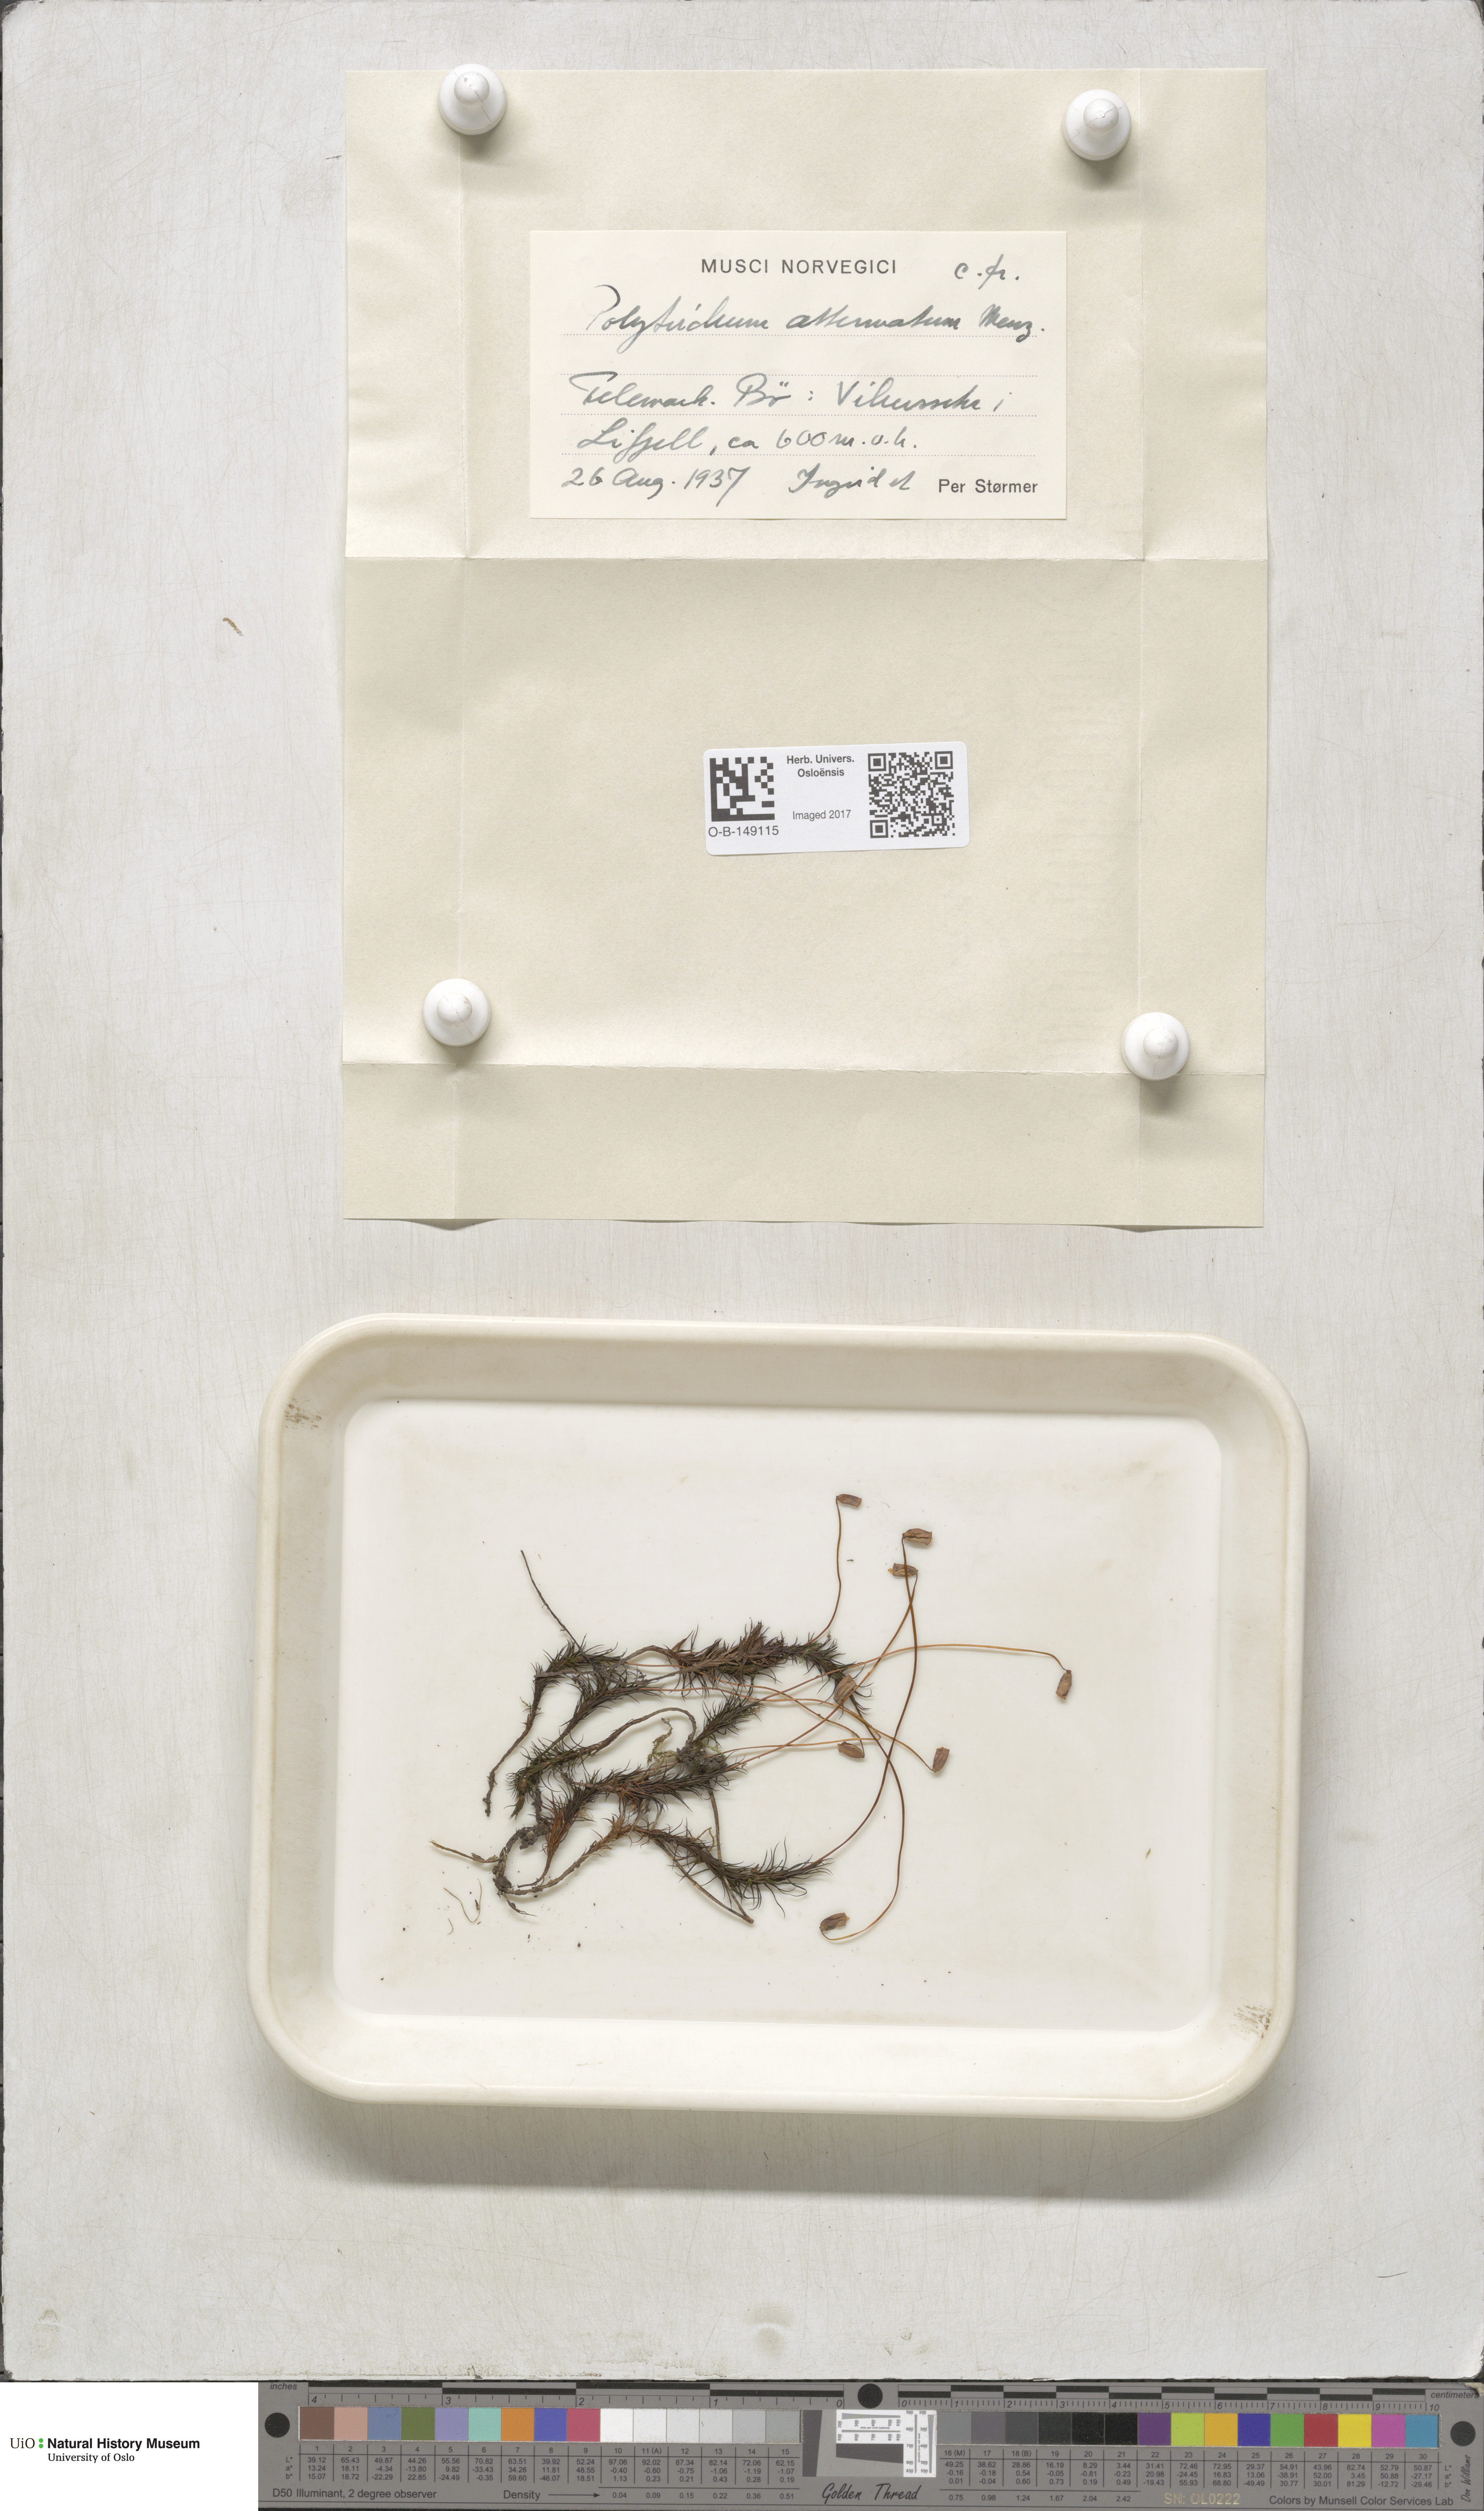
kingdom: Plantae
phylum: Bryophyta
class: Polytrichopsida
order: Polytrichales
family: Polytrichaceae
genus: Polytrichum
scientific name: Polytrichum formosum
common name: Bank haircap moss
